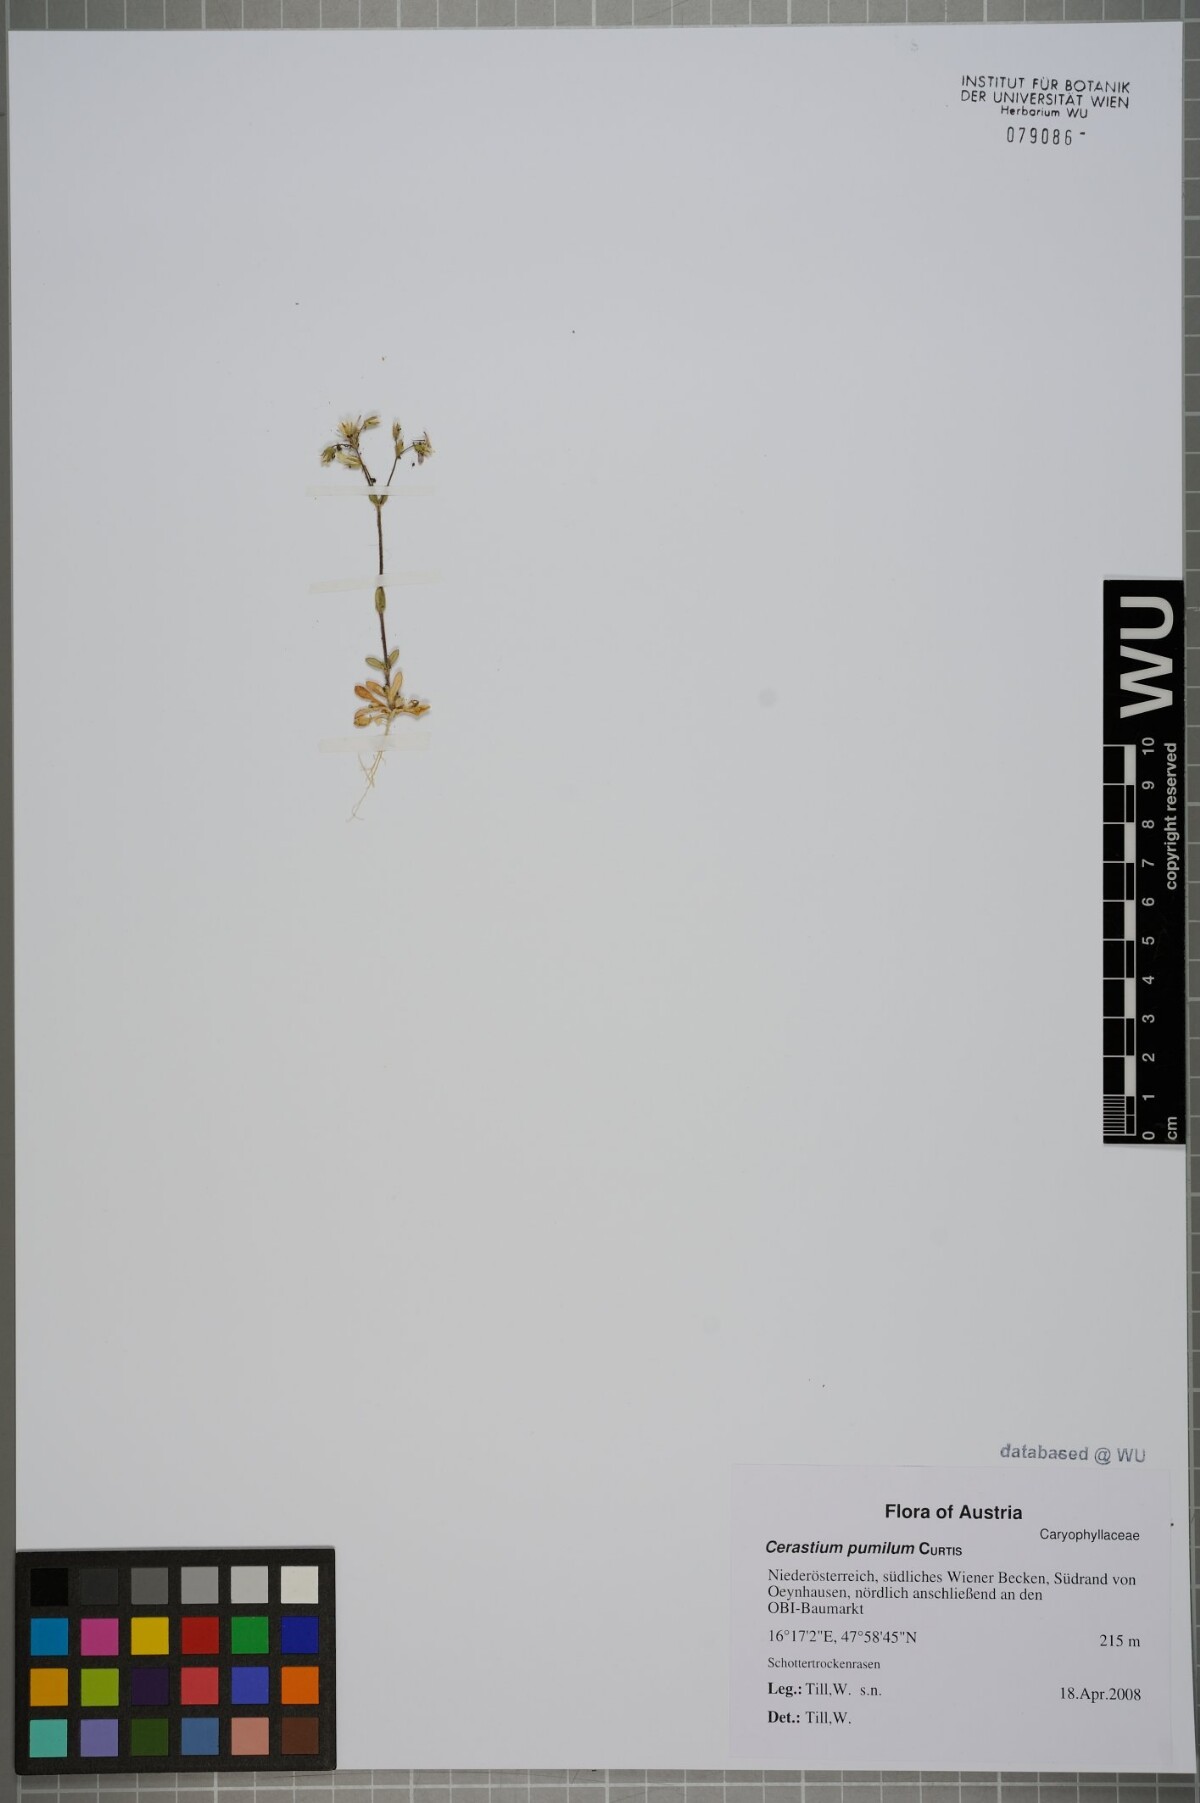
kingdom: Plantae
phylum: Tracheophyta
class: Magnoliopsida
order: Caryophyllales
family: Caryophyllaceae
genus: Cerastium
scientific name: Cerastium pumilum
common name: Dwarf mouse-ear
